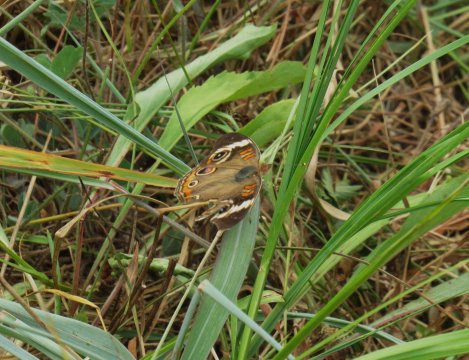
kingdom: Animalia
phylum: Arthropoda
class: Insecta
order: Lepidoptera
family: Nymphalidae
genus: Junonia
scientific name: Junonia coenia
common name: Common Buckeye
